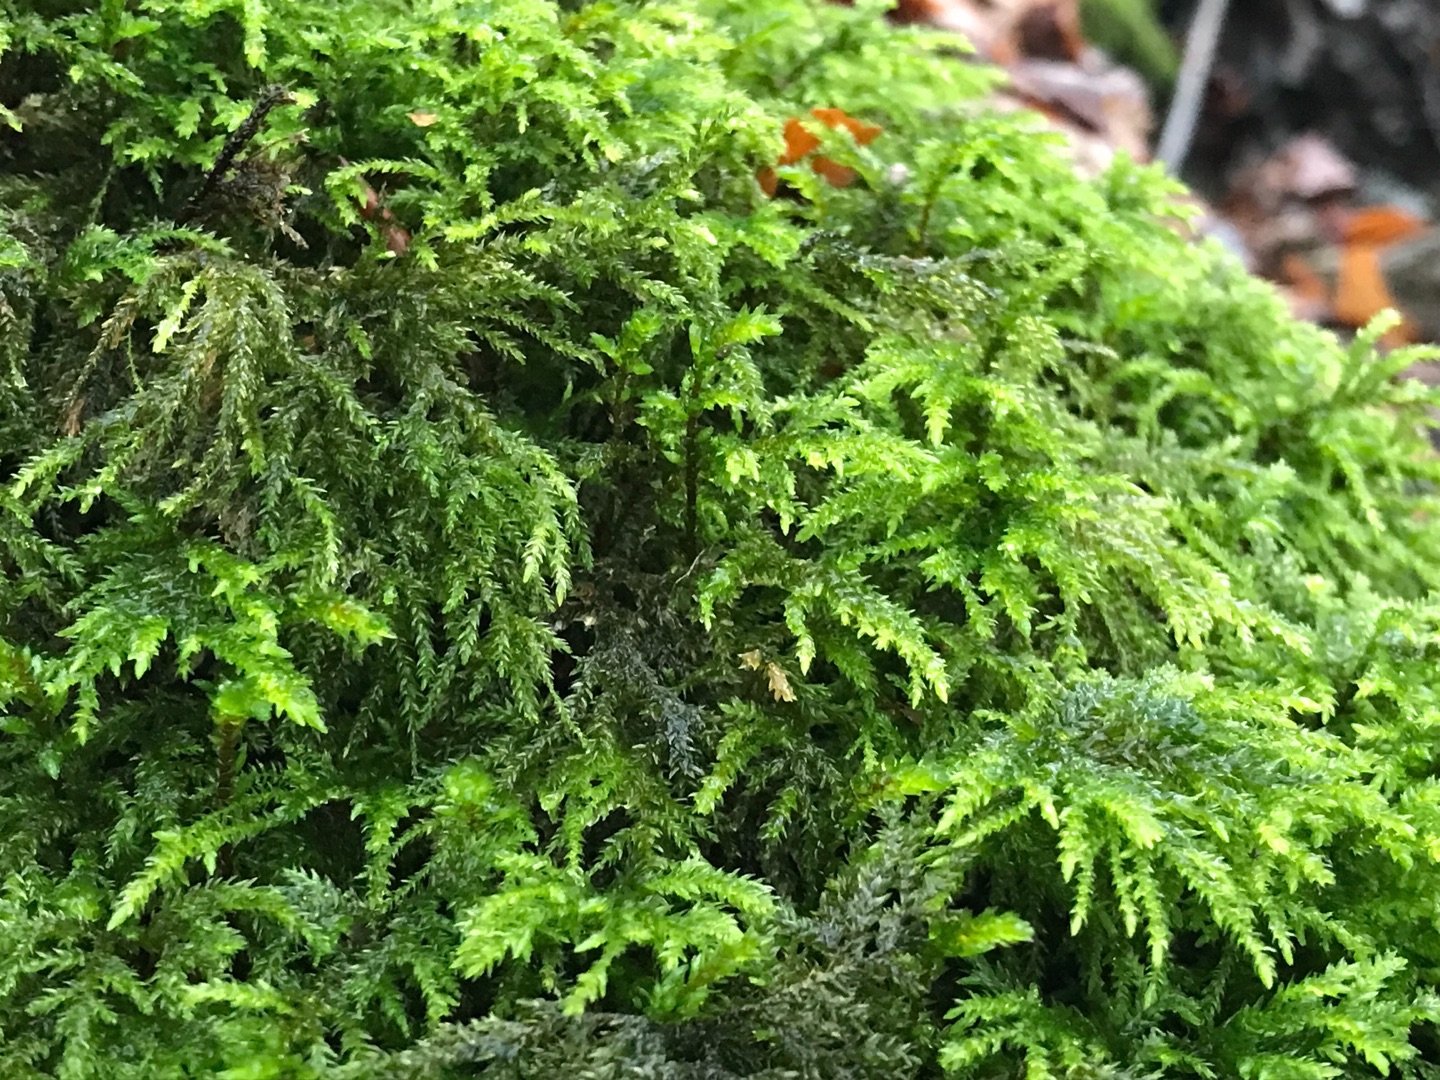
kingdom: Plantae
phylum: Bryophyta
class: Bryopsida
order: Hypnales
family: Neckeraceae
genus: Thamnobryum
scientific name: Thamnobryum alopecurum
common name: Mat bækkost
